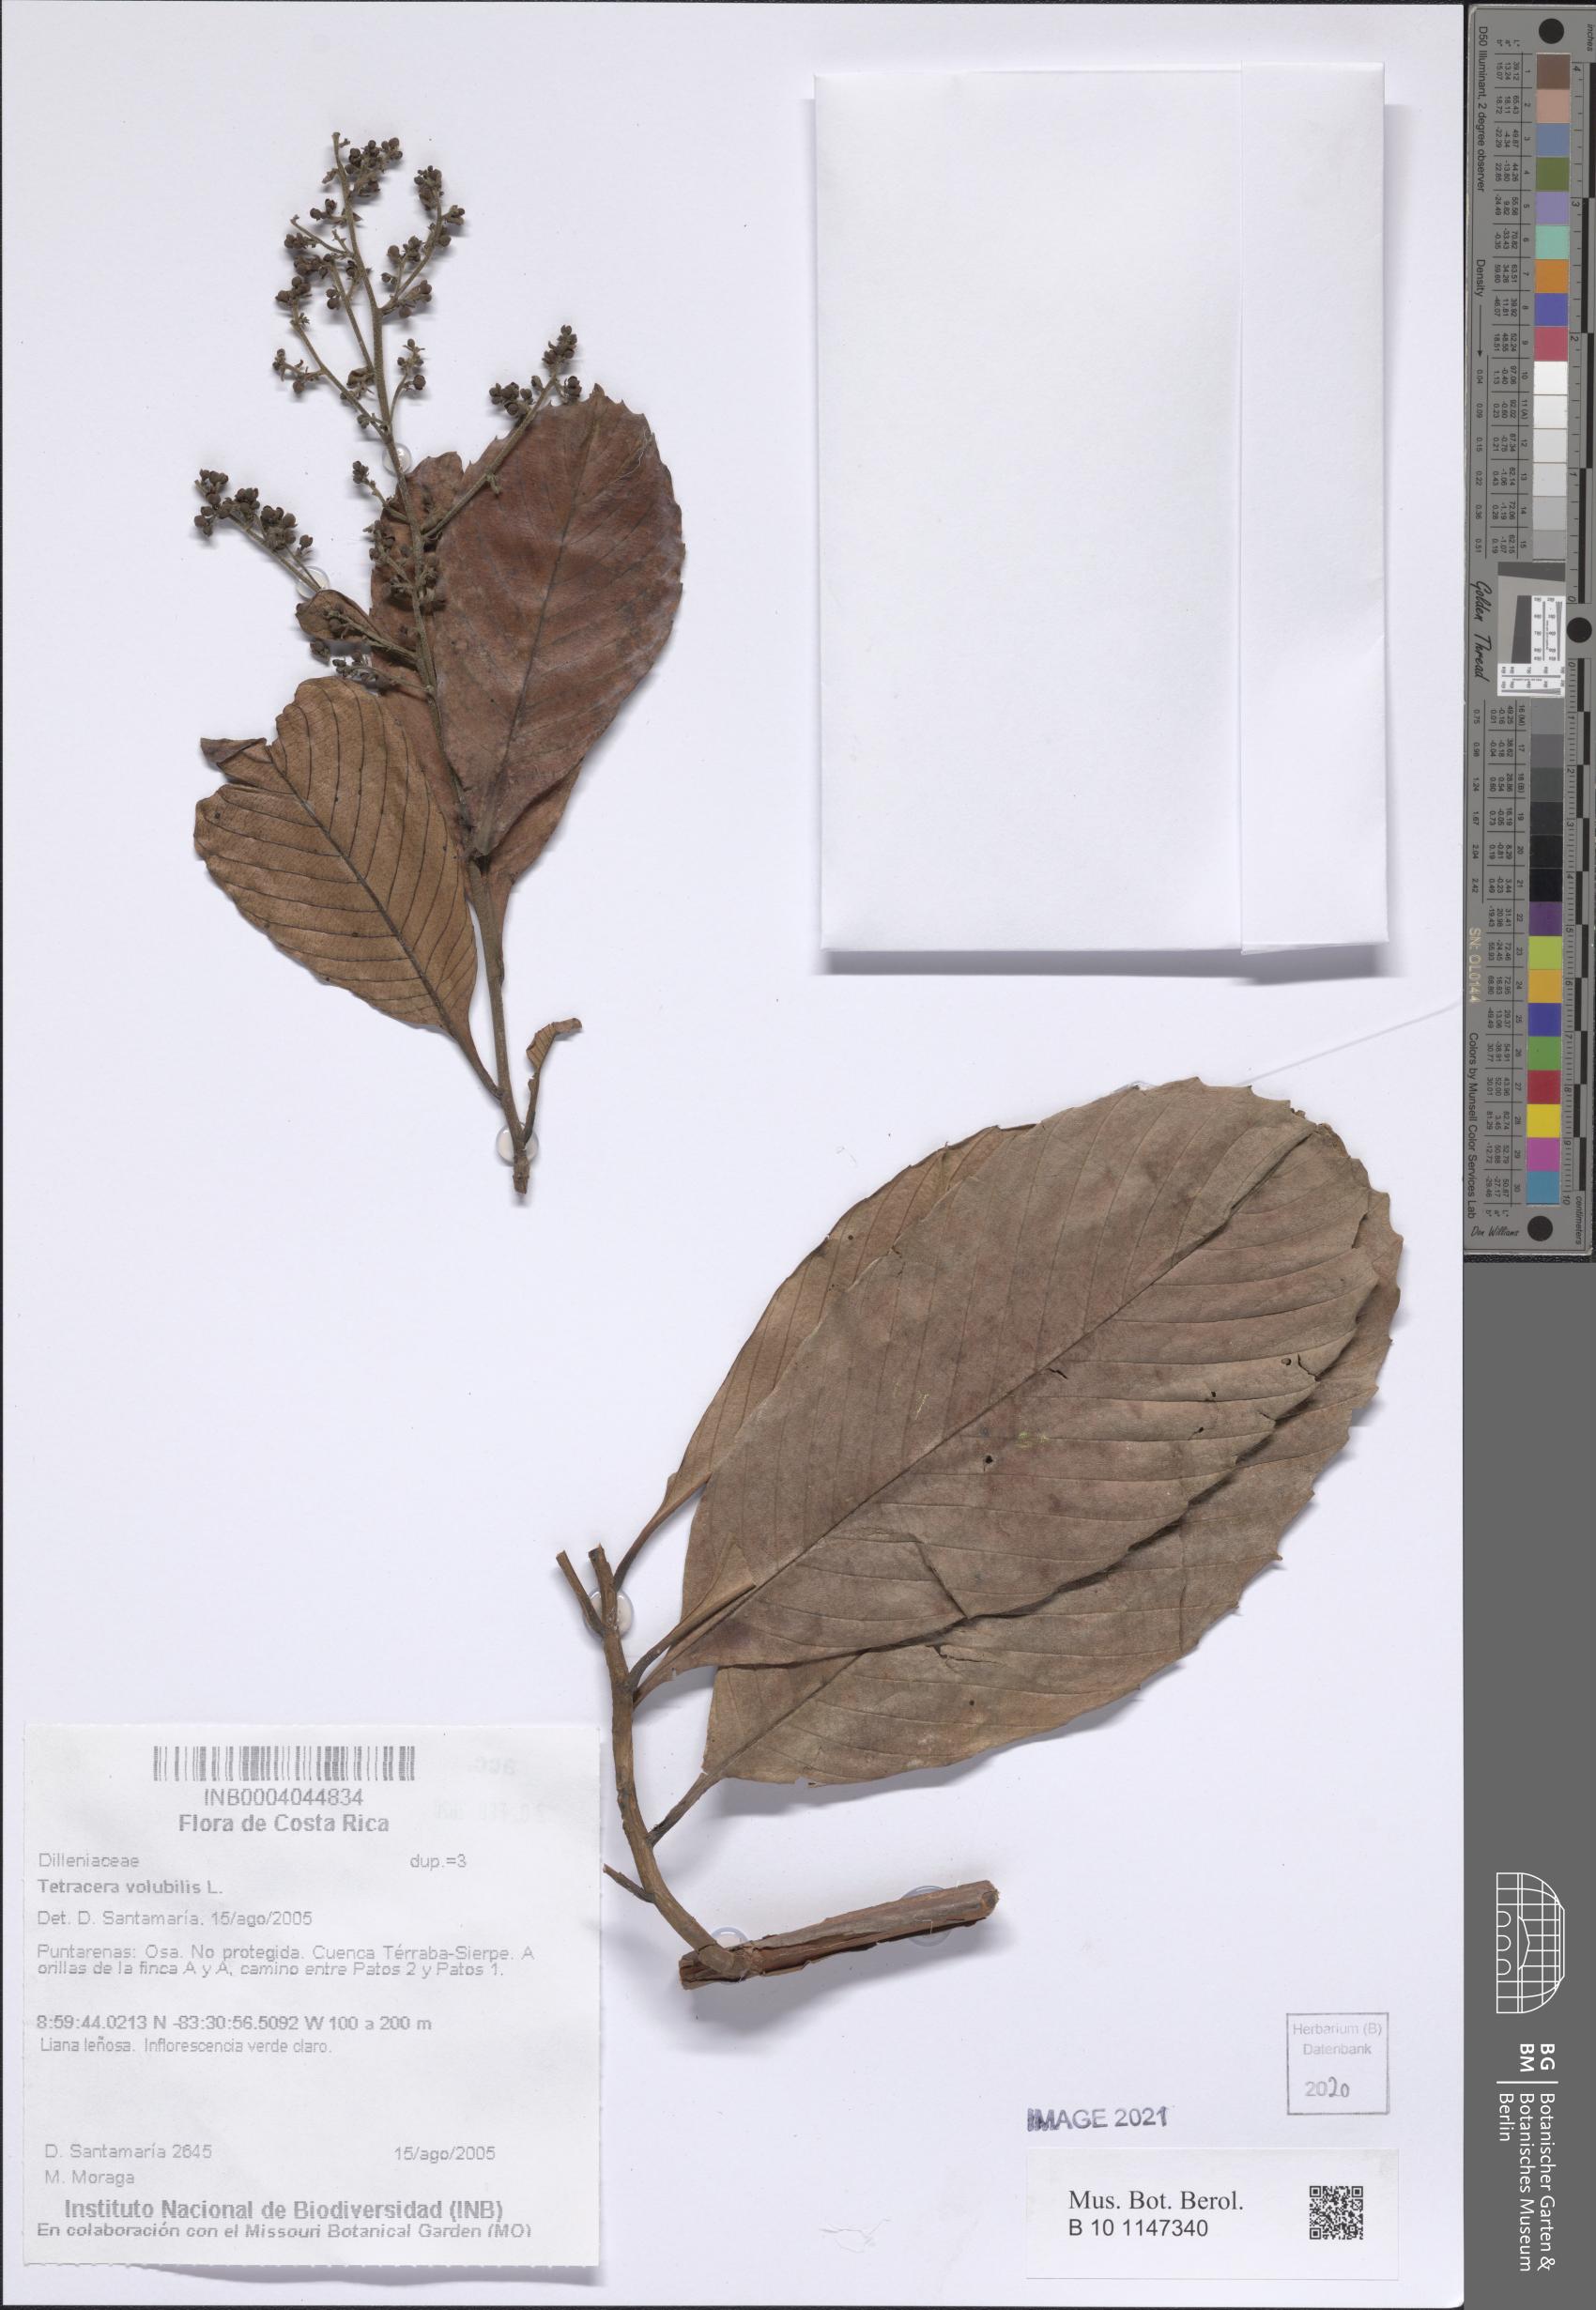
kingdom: Plantae
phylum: Tracheophyta
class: Magnoliopsida
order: Dilleniales
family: Dilleniaceae
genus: Tetracera
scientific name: Tetracera volubilis
